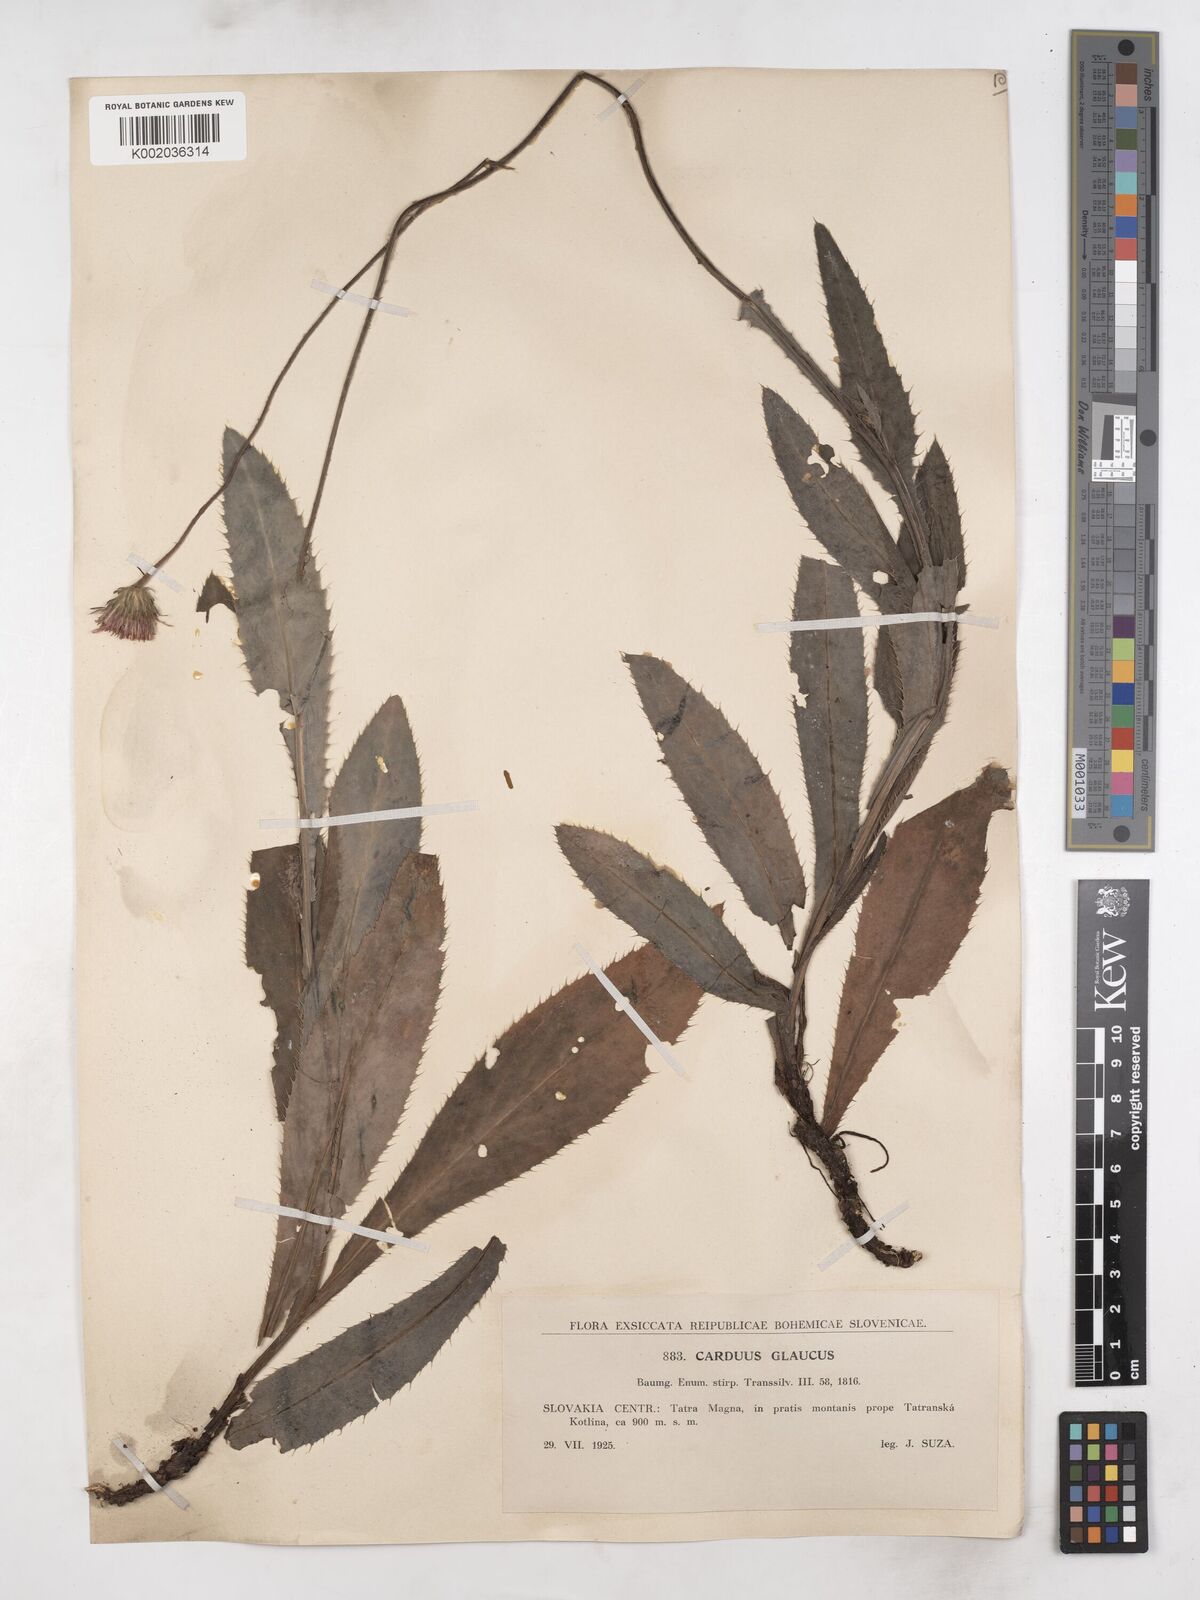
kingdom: Plantae
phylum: Tracheophyta
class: Magnoliopsida
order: Asterales
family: Asteraceae
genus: Carduus
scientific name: Carduus defloratus
